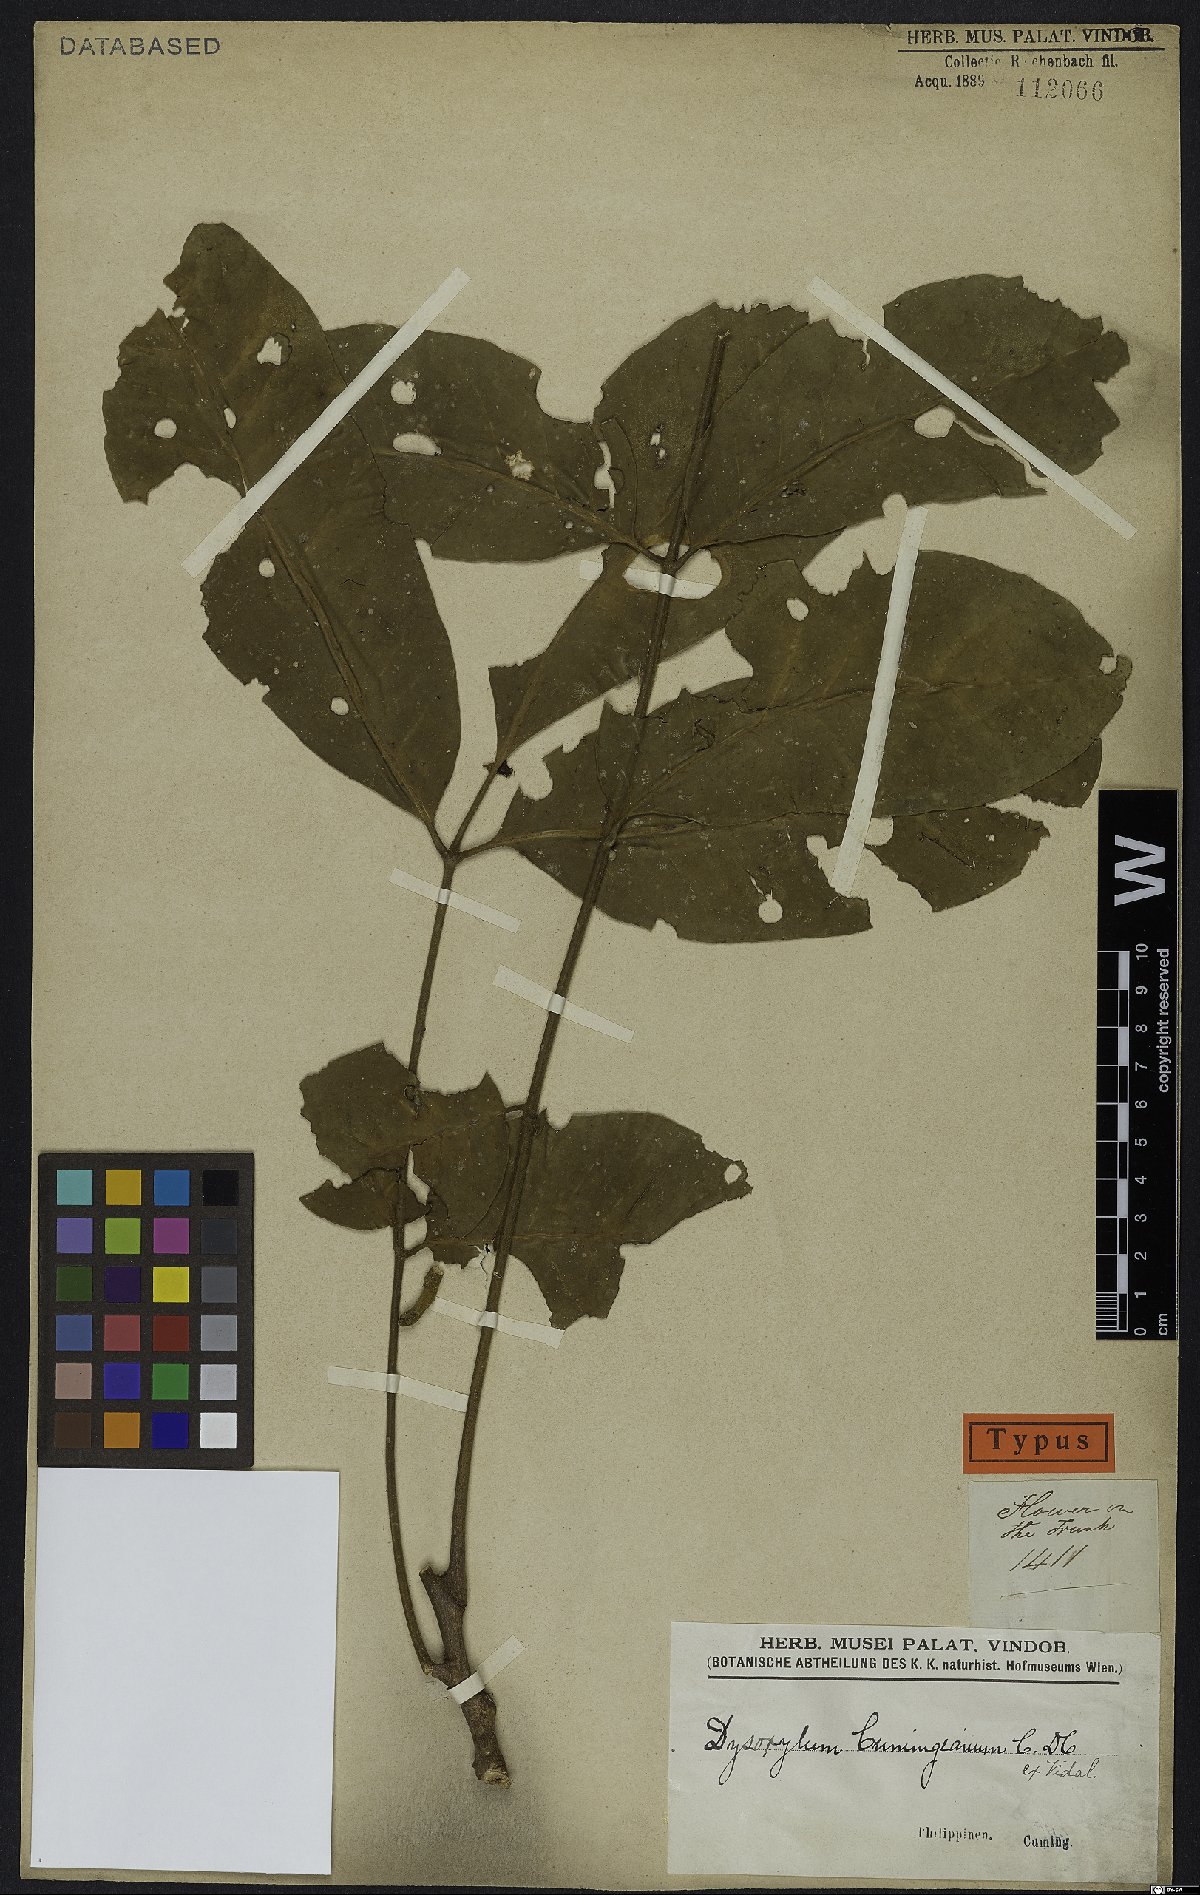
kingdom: Plantae
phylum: Tracheophyta
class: Magnoliopsida
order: Sapindales
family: Meliaceae
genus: Epicharis
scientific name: Epicharis cumingiana
